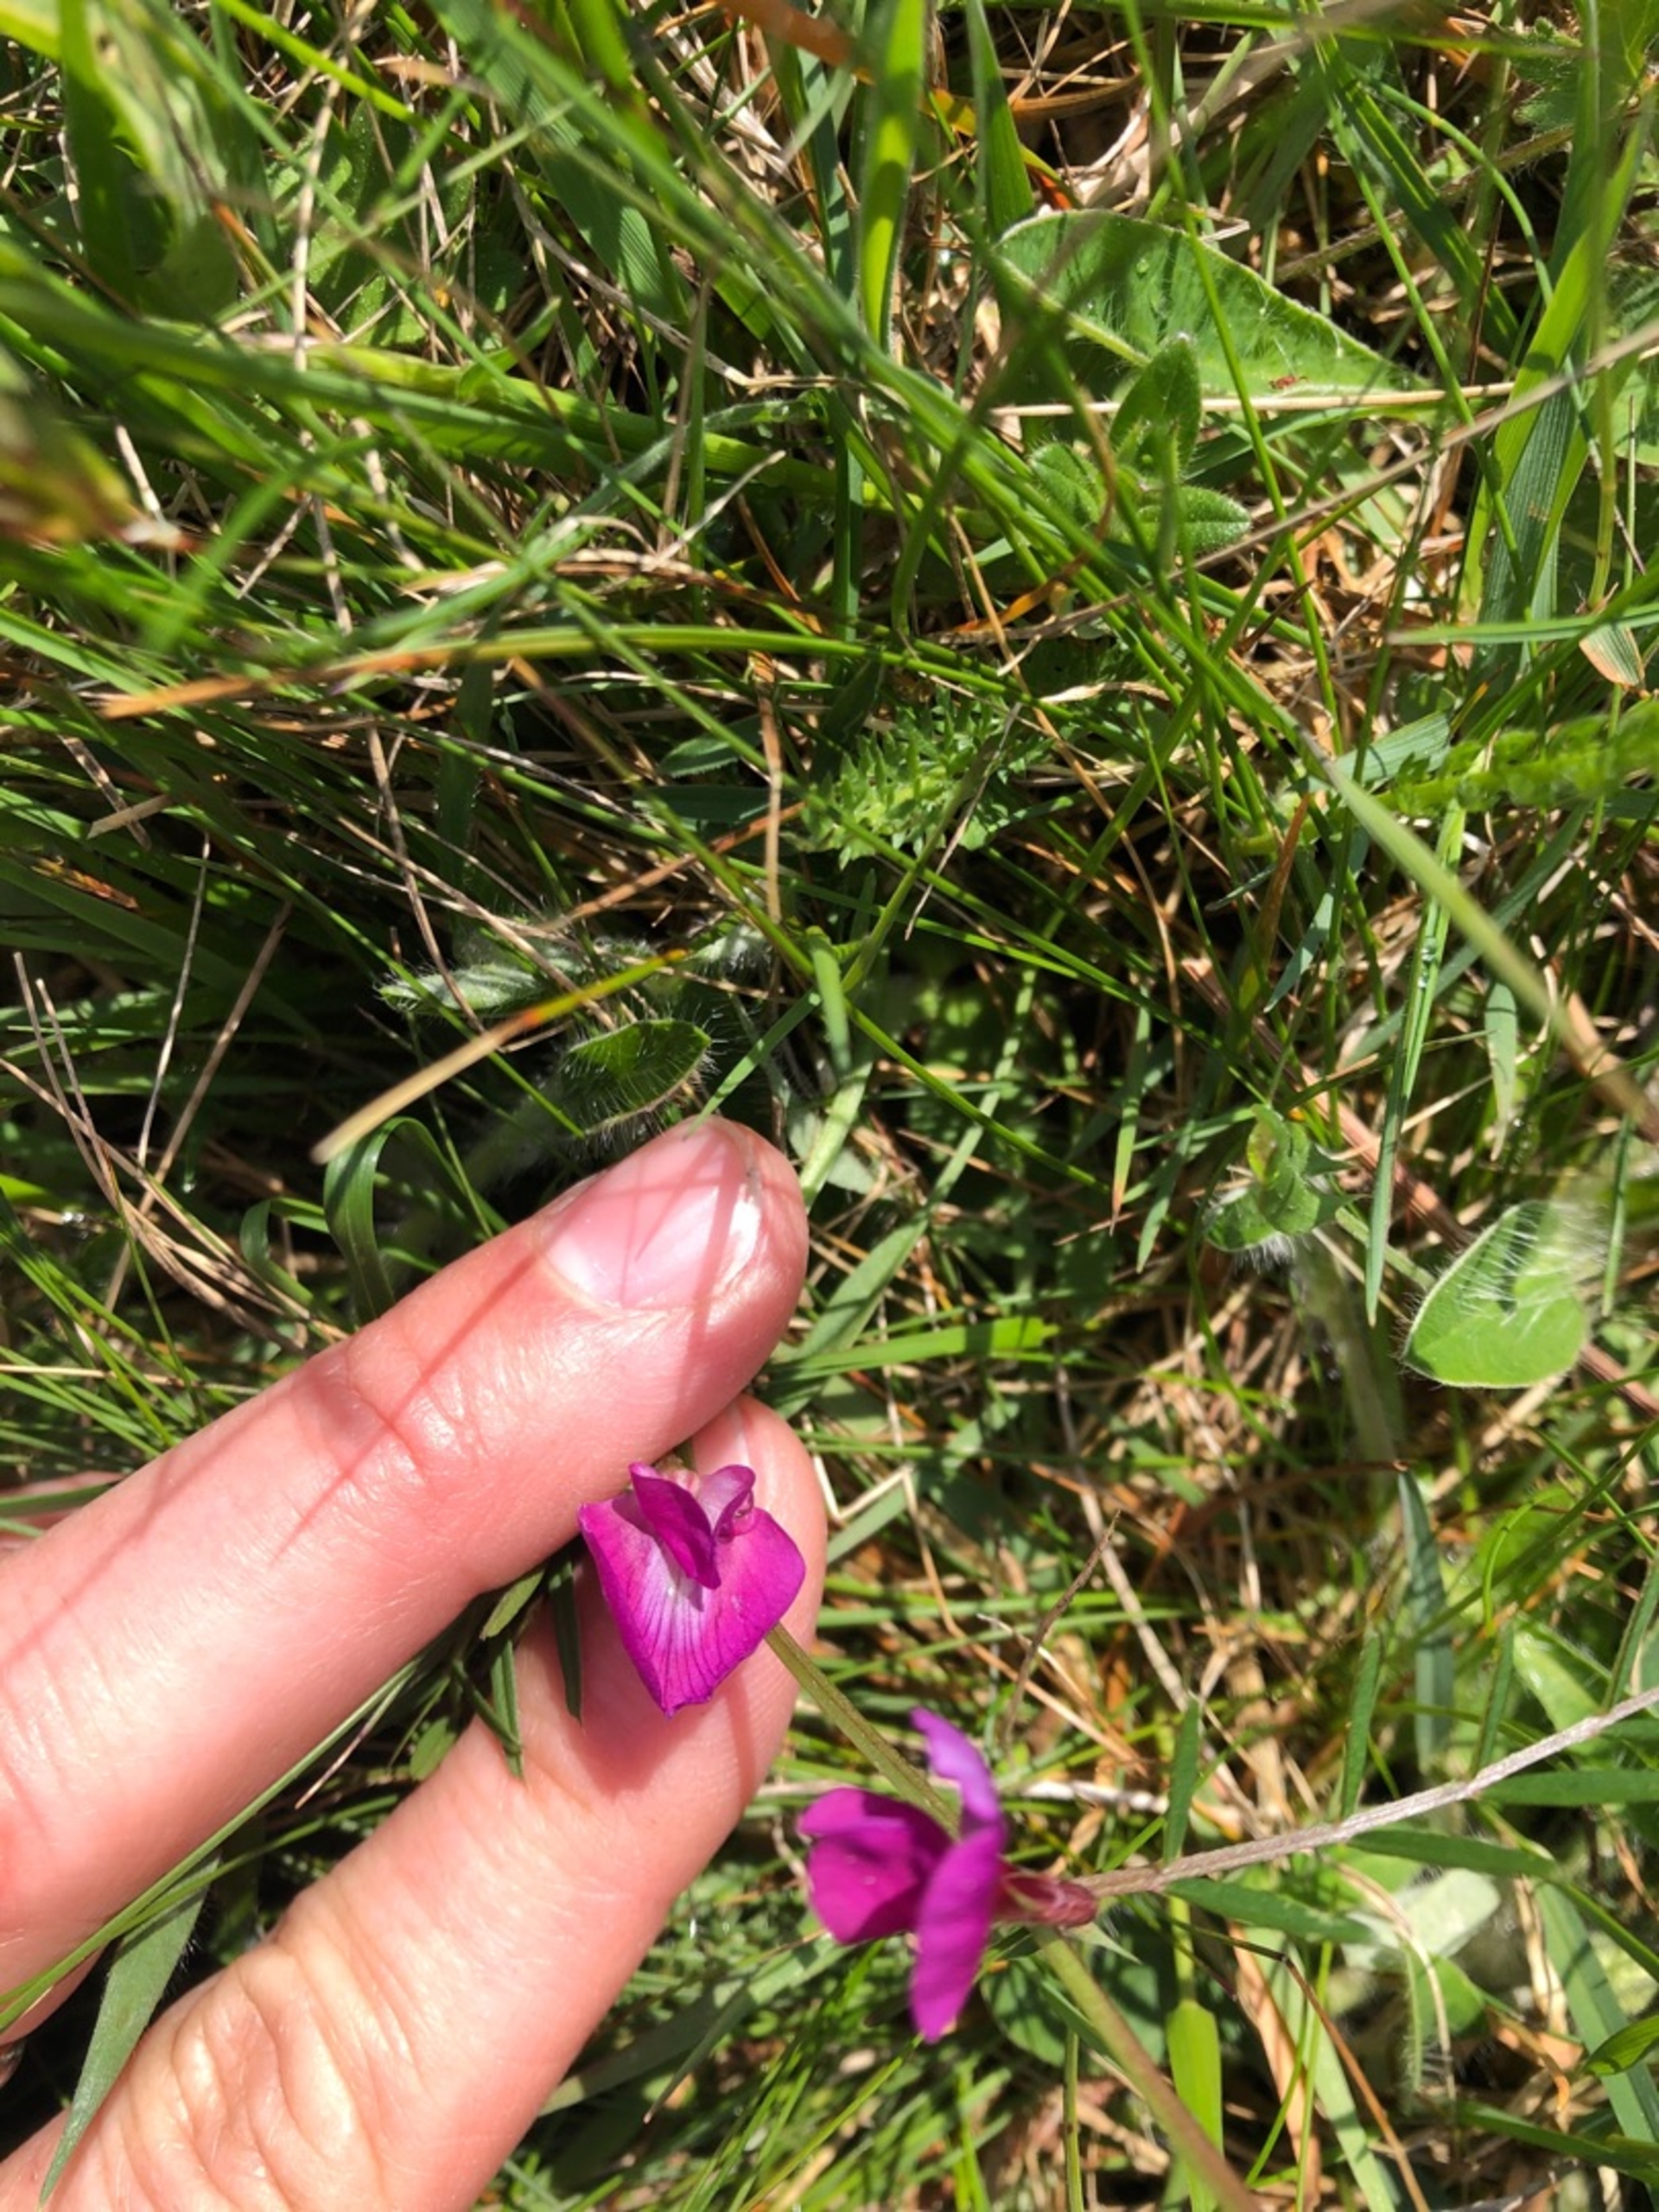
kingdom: Plantae
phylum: Tracheophyta
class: Magnoliopsida
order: Fabales
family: Fabaceae
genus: Vicia
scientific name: Vicia sativa
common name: Foder-vikke
